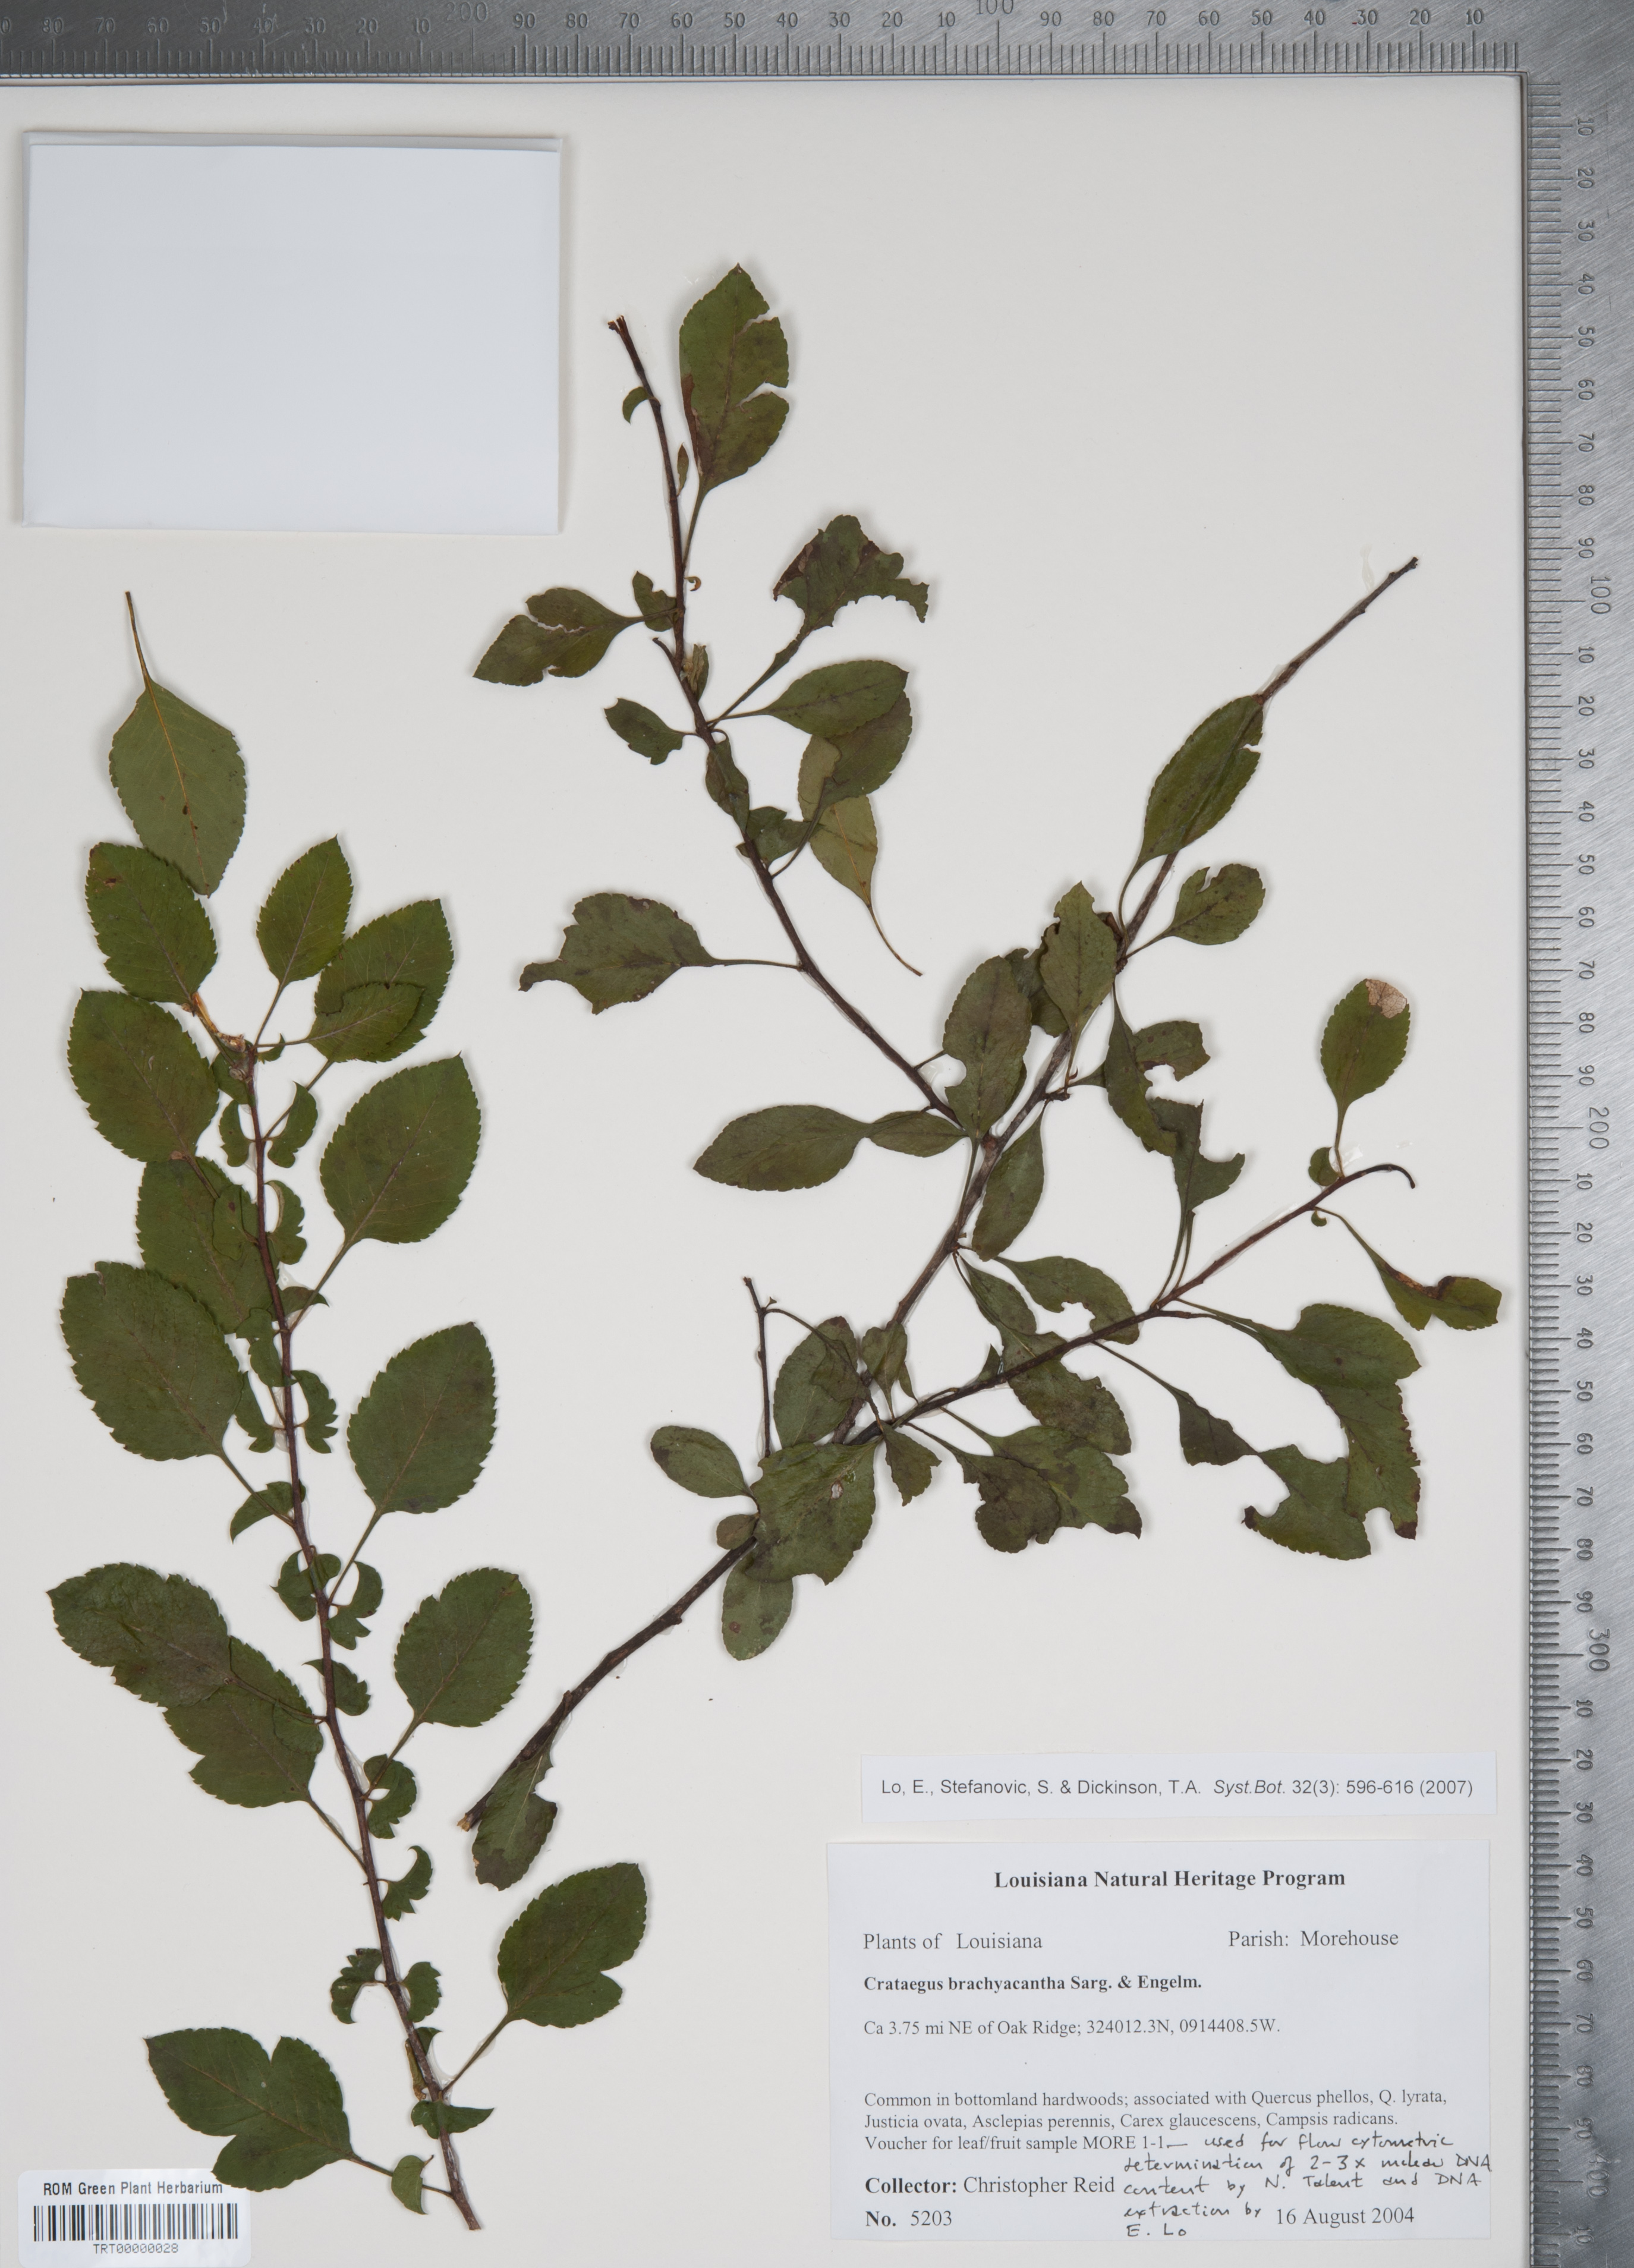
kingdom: Plantae
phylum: Tracheophyta
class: Magnoliopsida
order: Rosales
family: Rosaceae
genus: Crataegus
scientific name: Crataegus brachyacantha
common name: Blueberry-hawthorn
